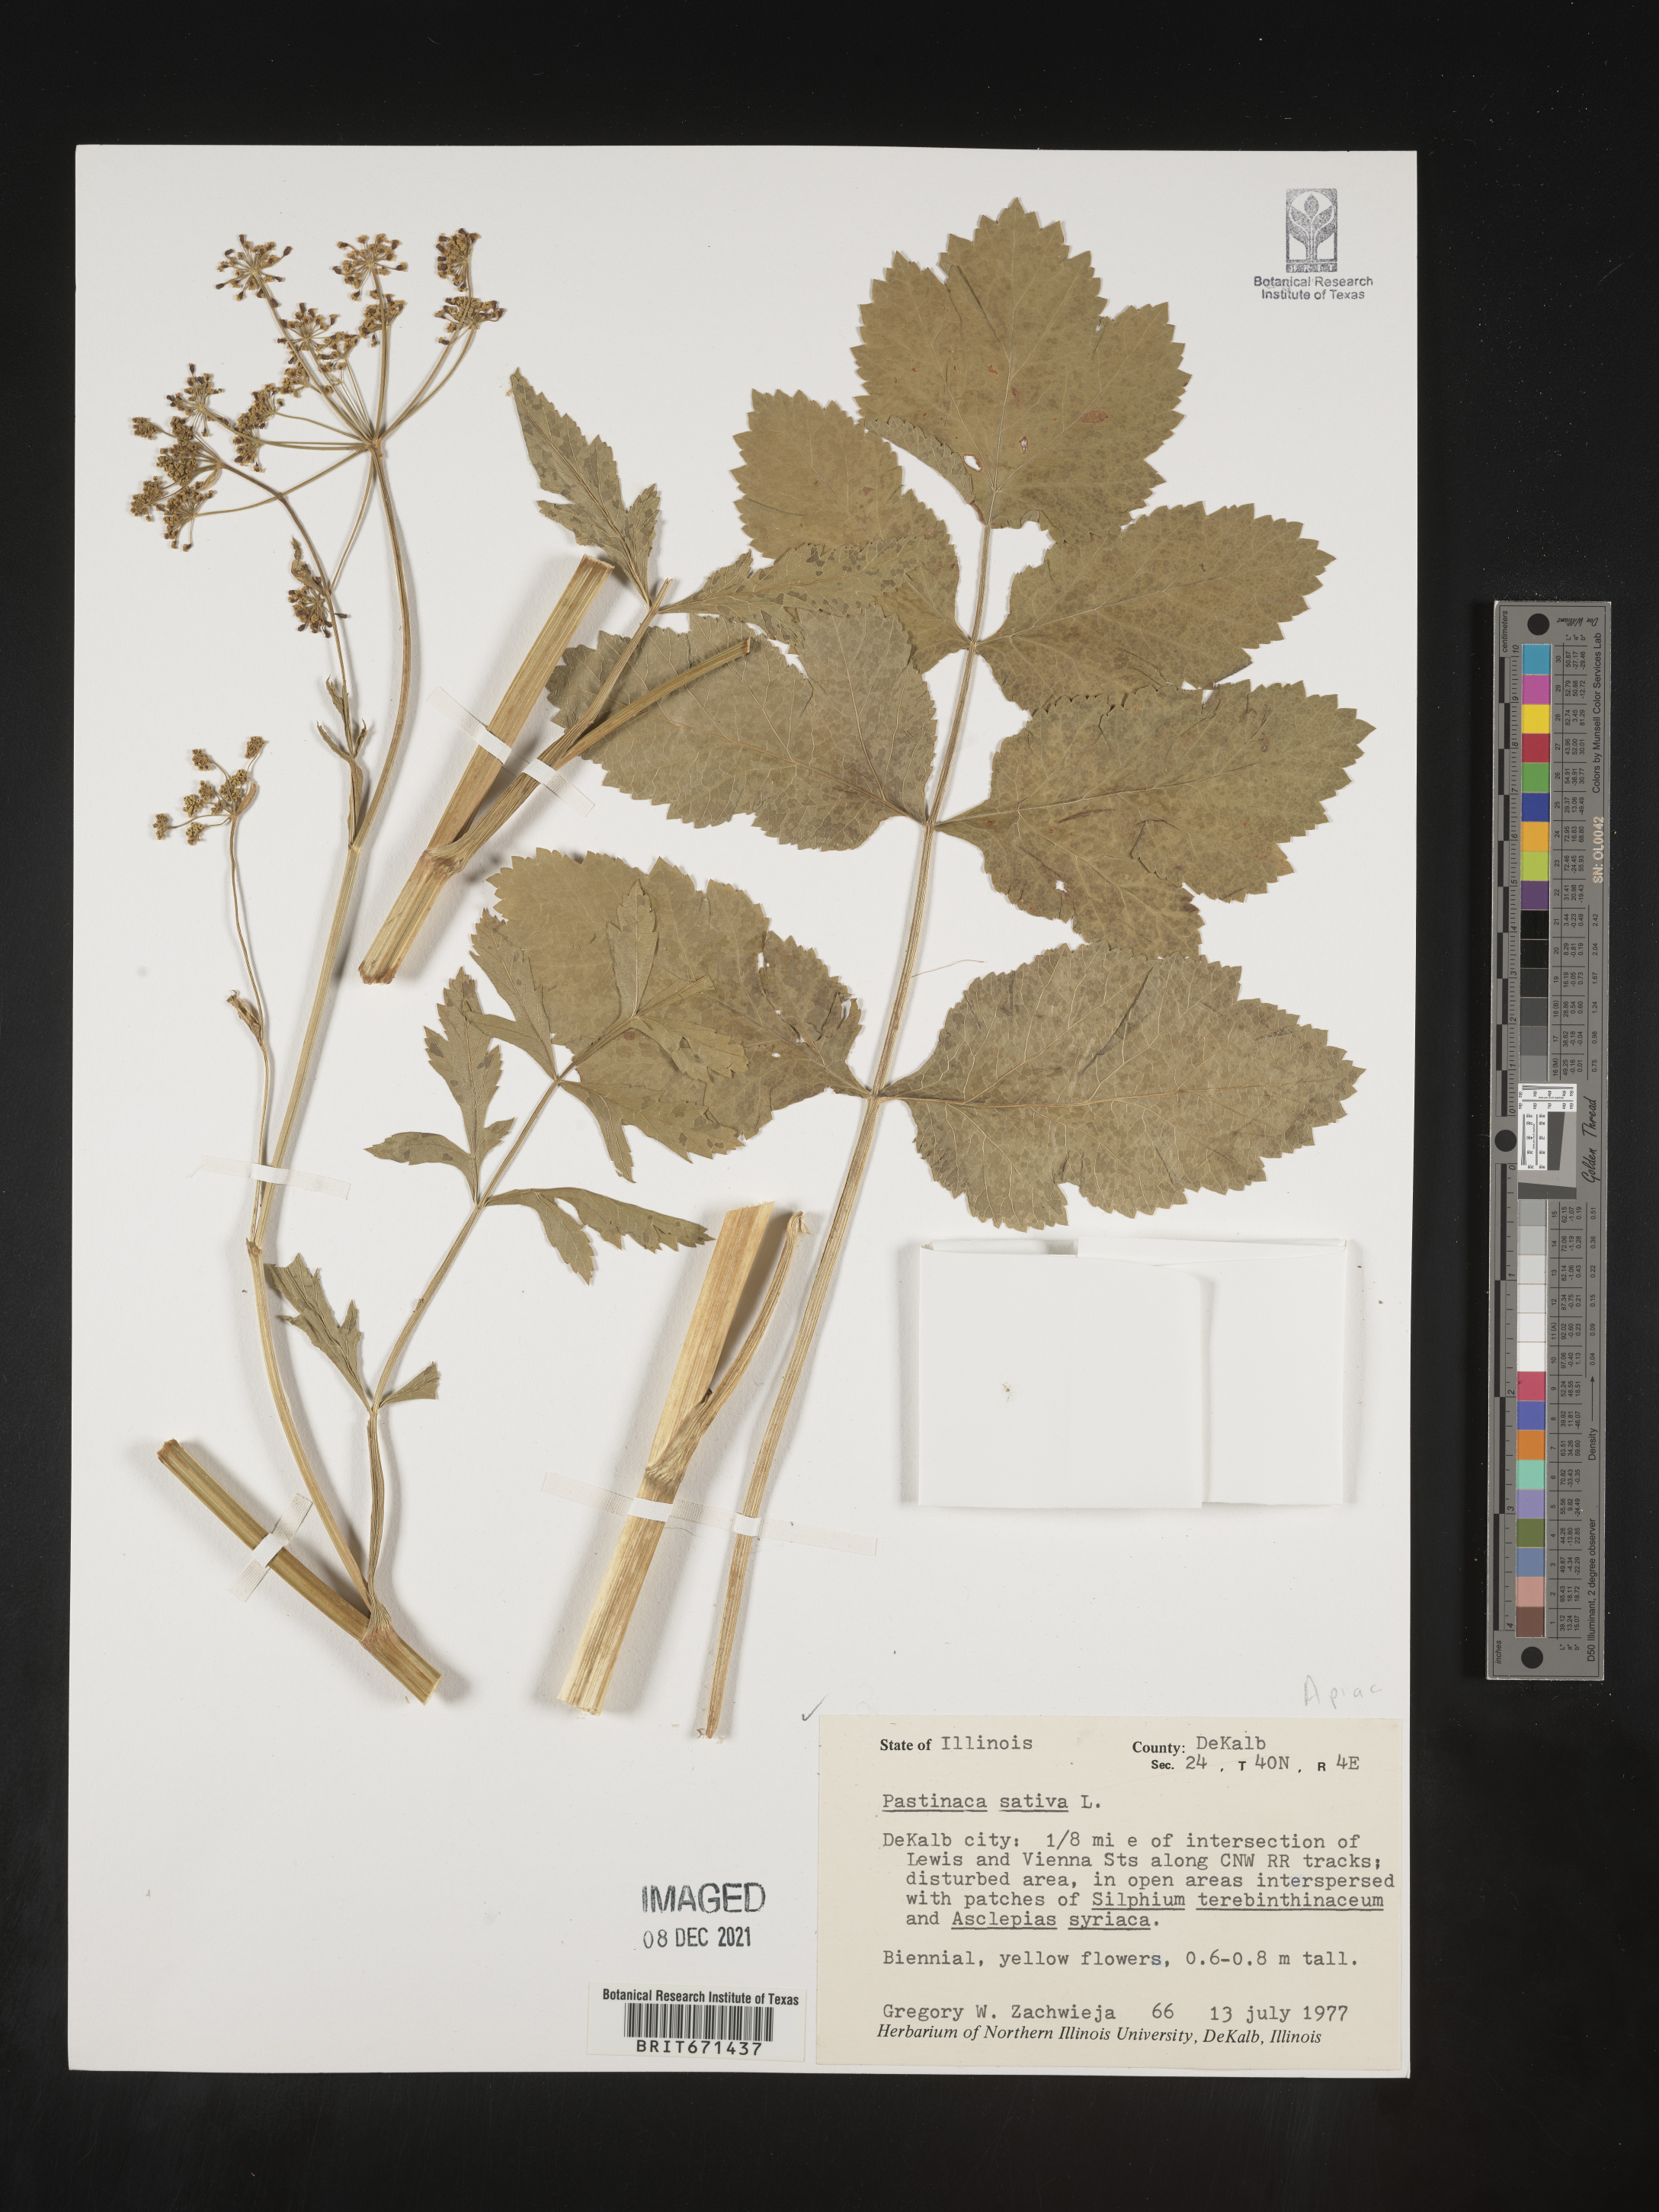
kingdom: Plantae
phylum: Tracheophyta
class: Magnoliopsida
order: Apiales
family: Apiaceae
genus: Pastinaca
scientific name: Pastinaca
